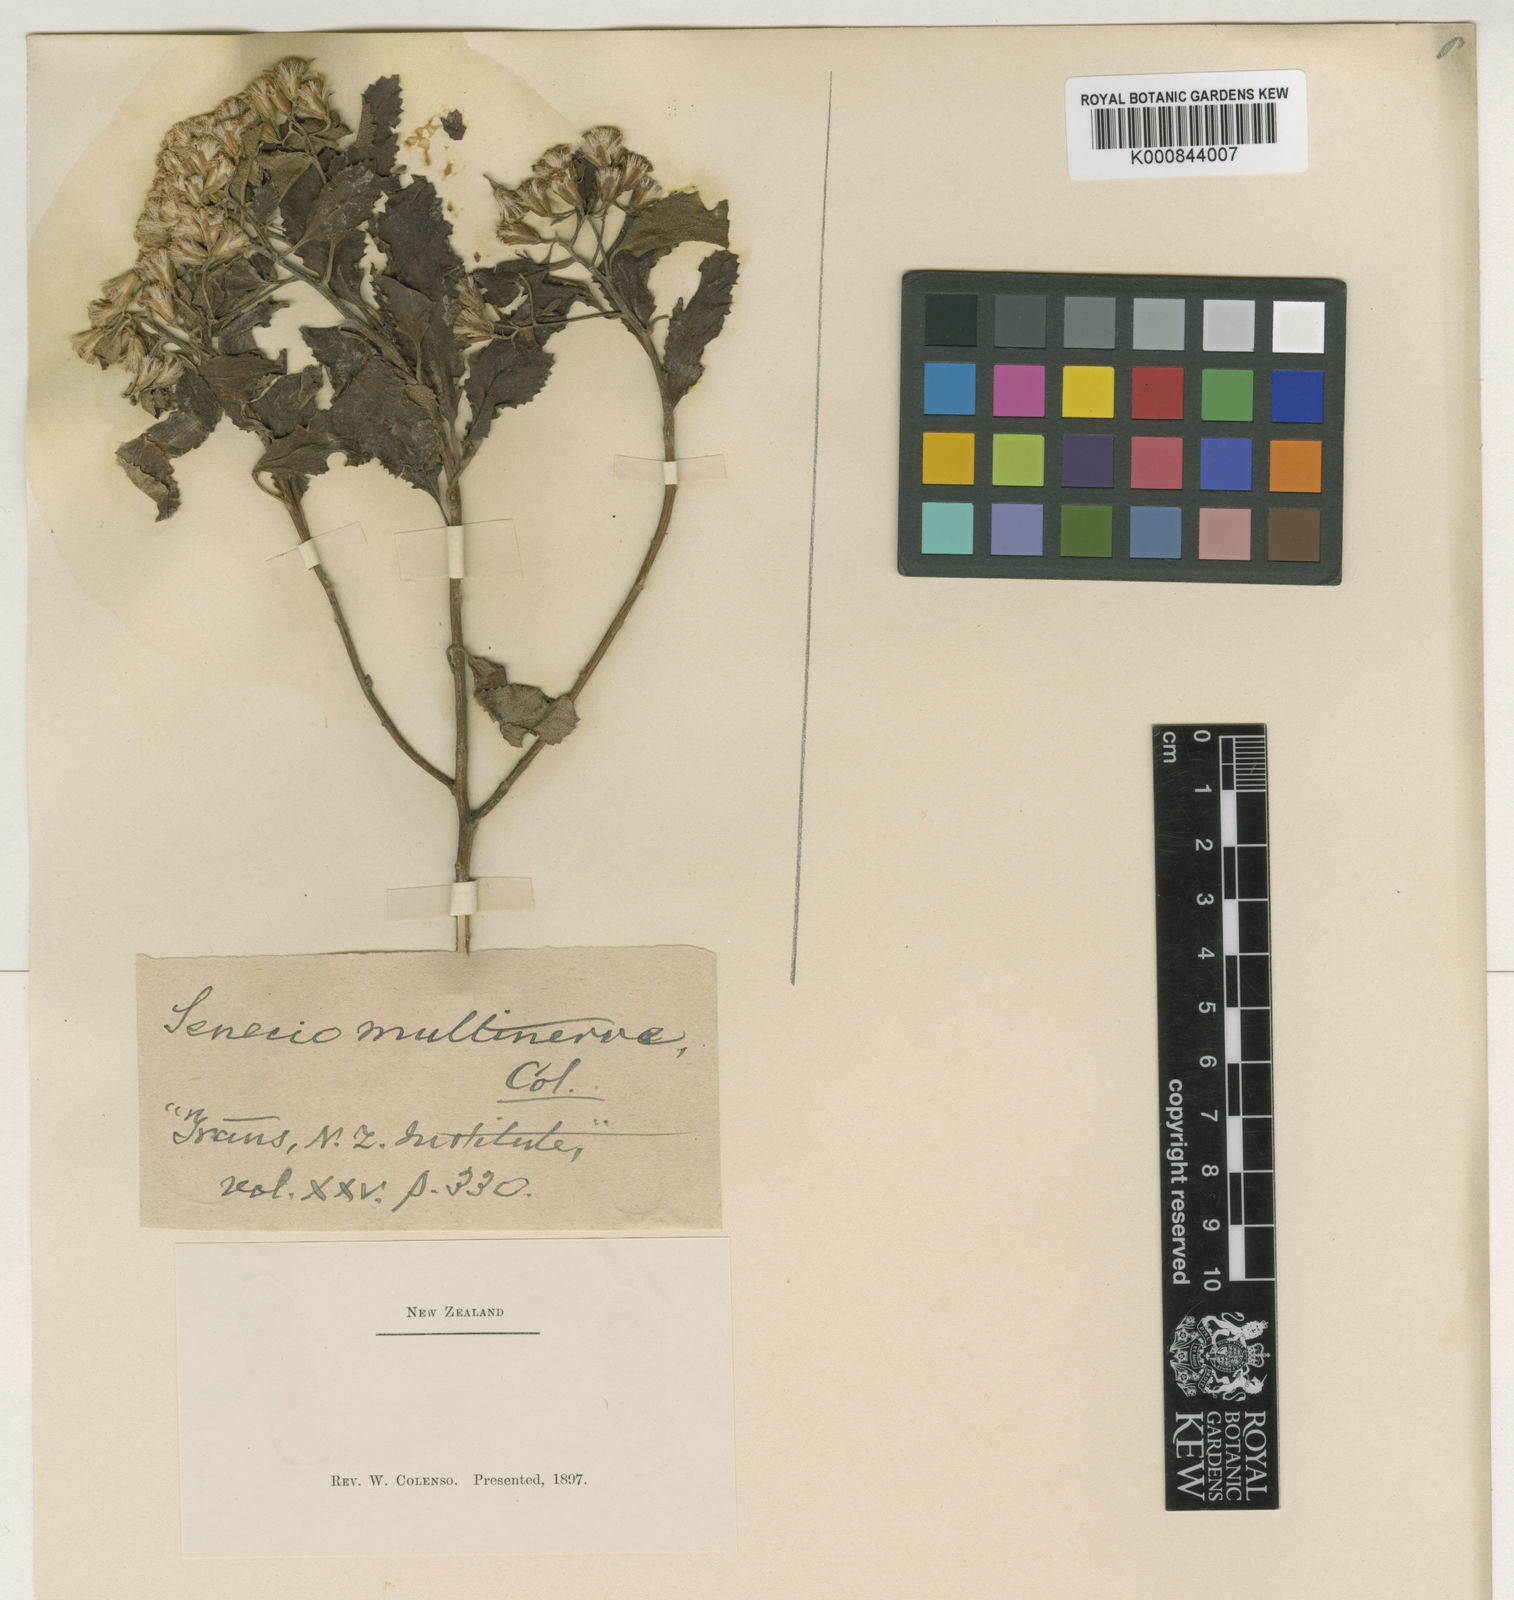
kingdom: Plantae
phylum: Tracheophyta
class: Magnoliopsida
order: Asterales
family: Asteraceae
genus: Brachyglottis
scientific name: Brachyglottis perdicioides
